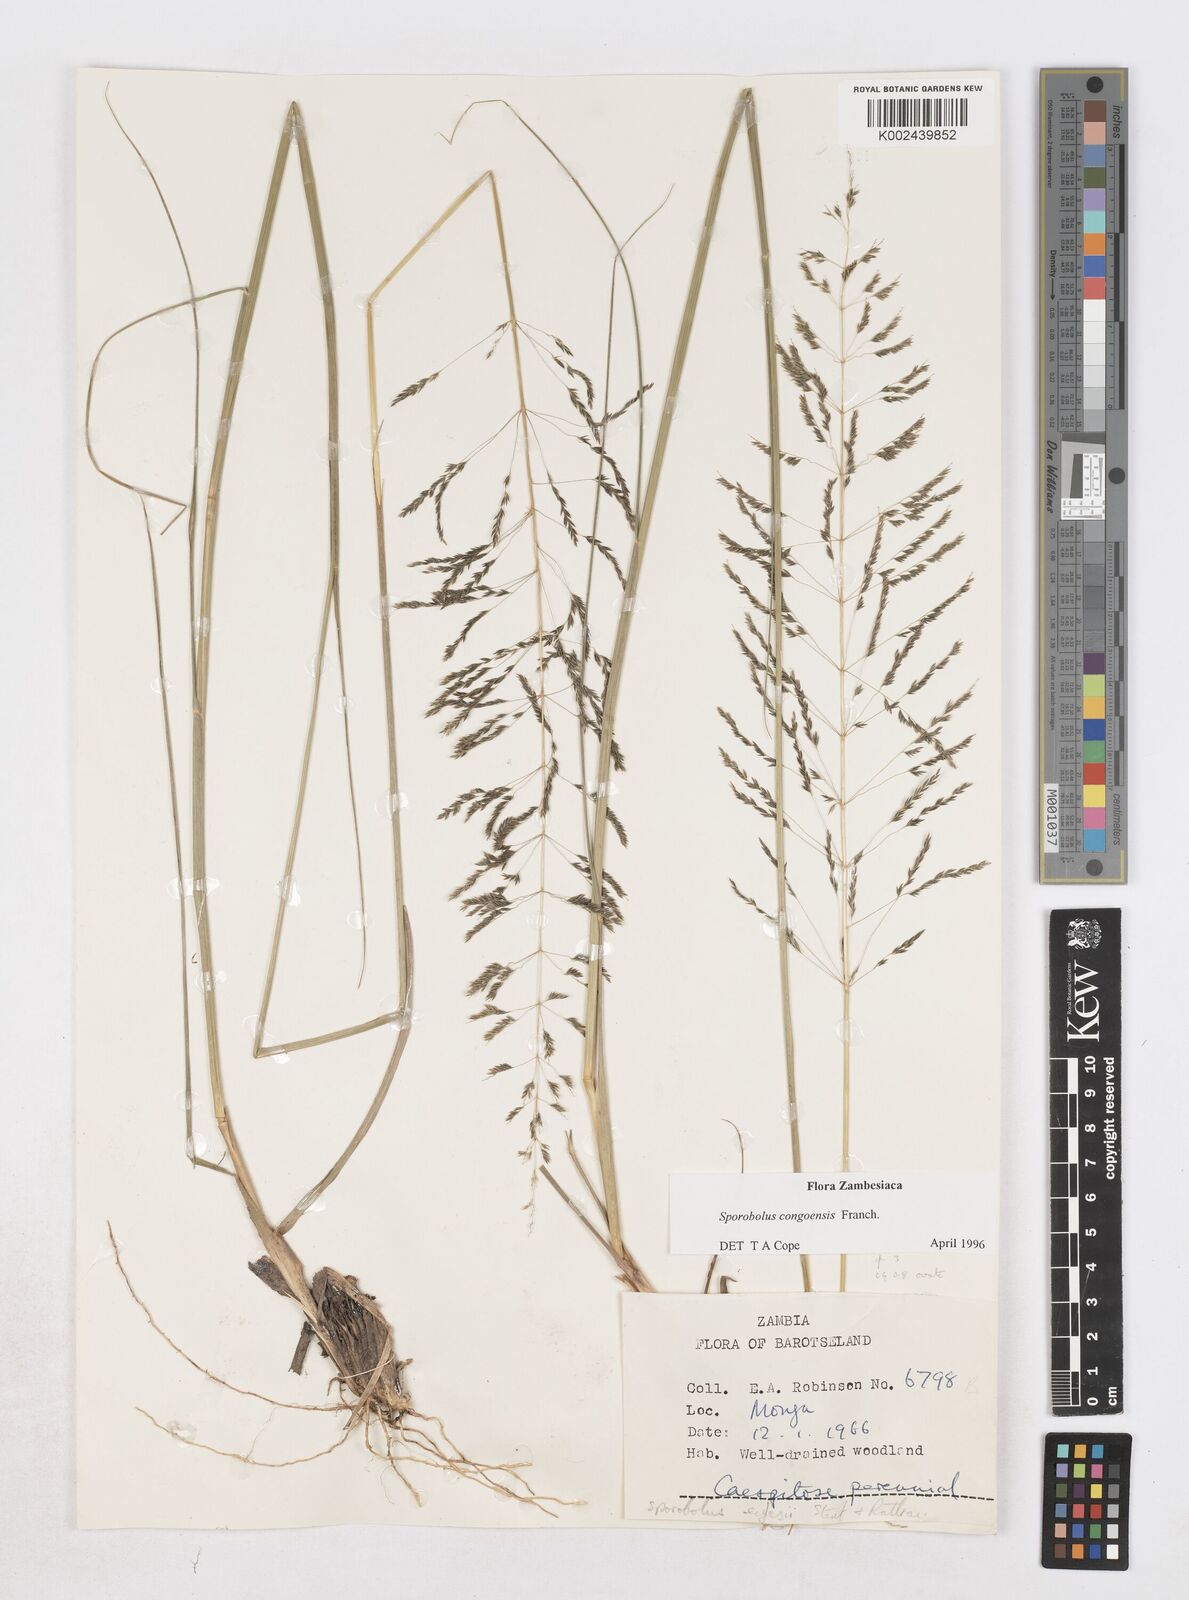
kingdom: Plantae
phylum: Tracheophyta
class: Liliopsida
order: Poales
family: Poaceae
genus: Sporobolus
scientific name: Sporobolus congoensis
